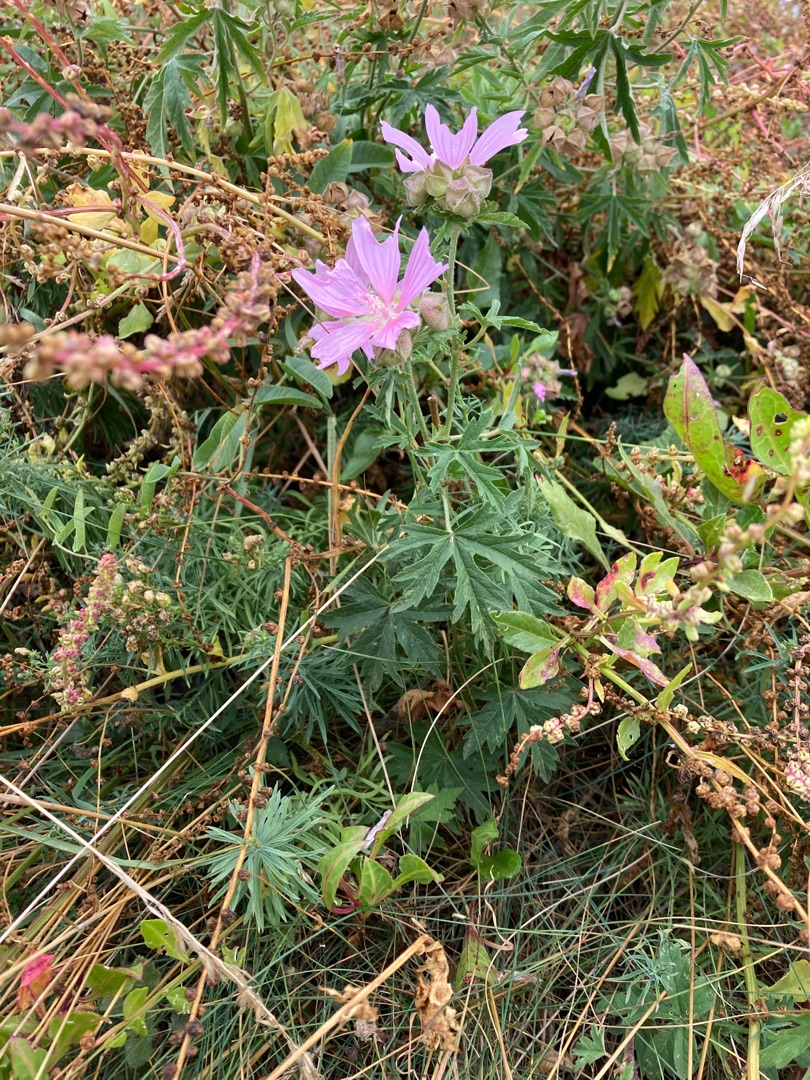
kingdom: Plantae
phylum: Tracheophyta
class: Magnoliopsida
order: Malvales
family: Malvaceae
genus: Malva
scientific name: Malva alcea
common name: Rosen-katost
